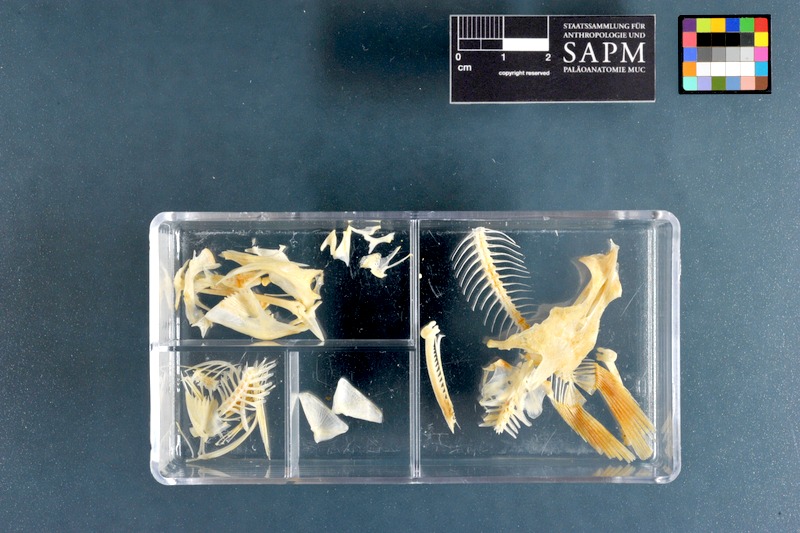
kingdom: Animalia
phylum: Chordata
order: Siluriformes
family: Claroteidae
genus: Chrysichthys
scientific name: Chrysichthys nigrodigitatus
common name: Bagrid catfish
